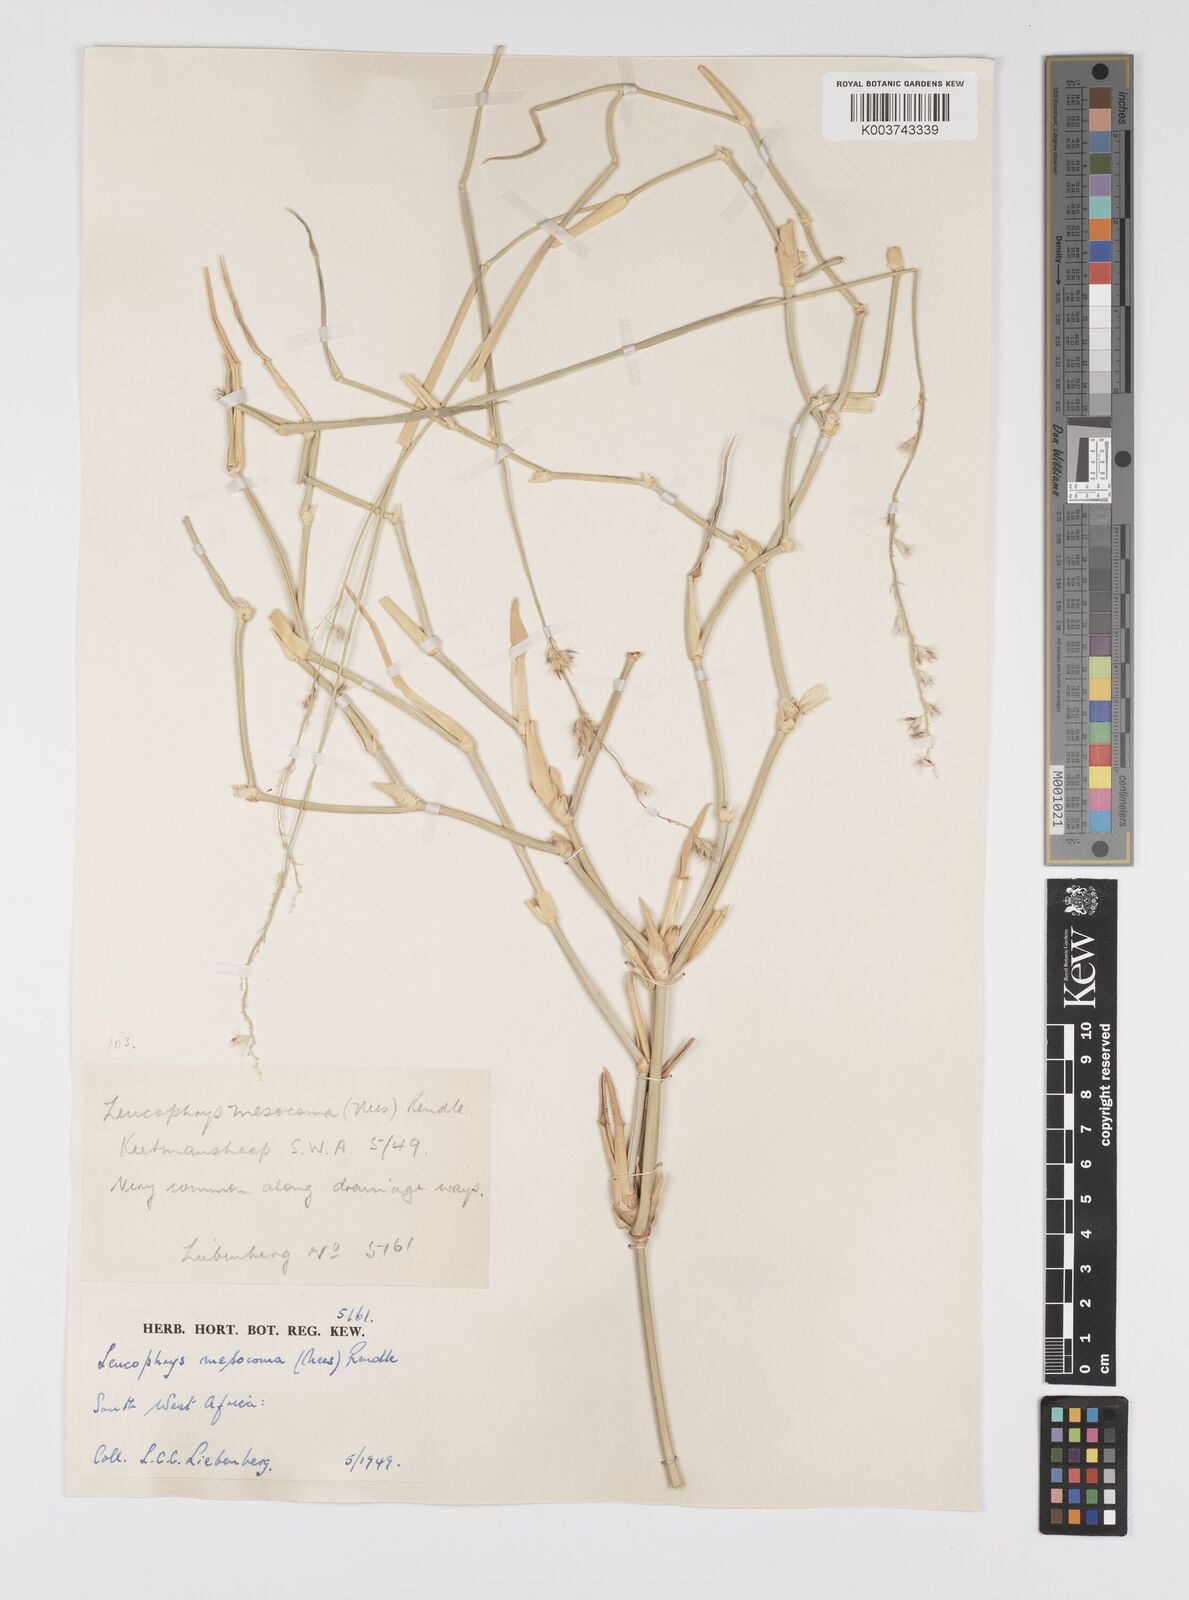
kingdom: Plantae
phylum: Tracheophyta
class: Liliopsida
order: Poales
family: Poaceae
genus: Urochloa
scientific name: Urochloa Brachiaria mesocoma
